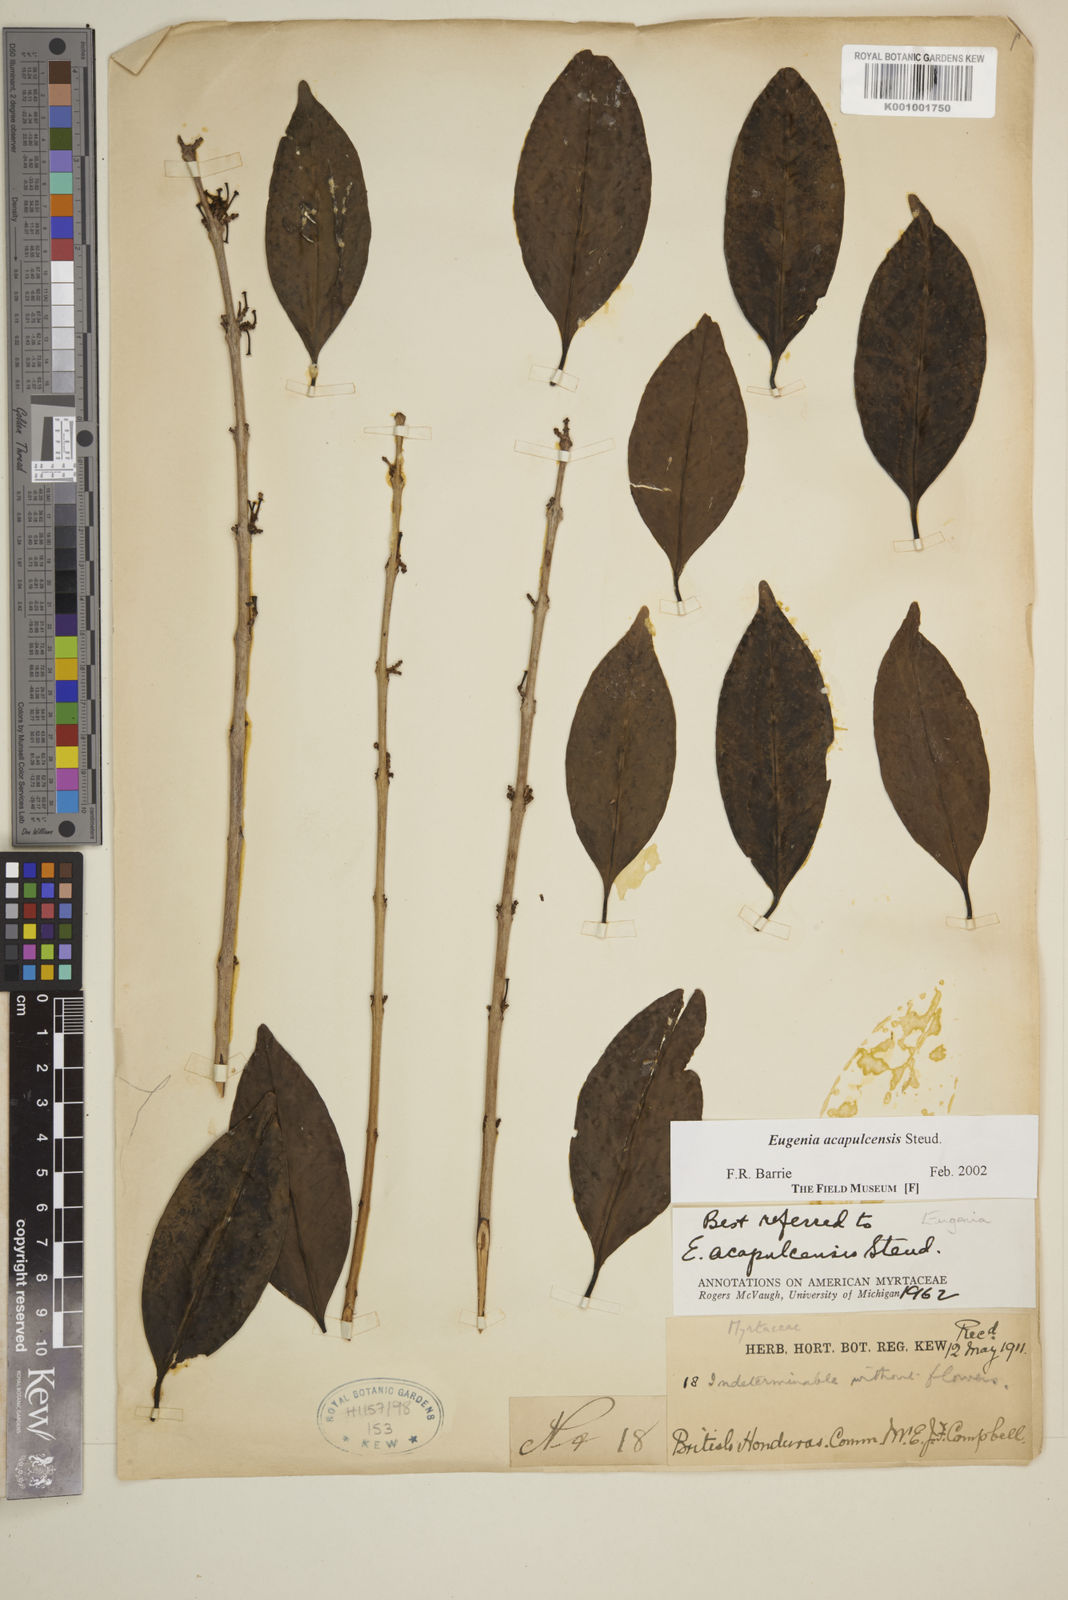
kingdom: Plantae
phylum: Tracheophyta
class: Magnoliopsida
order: Myrtales
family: Myrtaceae
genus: Eugenia
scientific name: Eugenia acapulcensis
